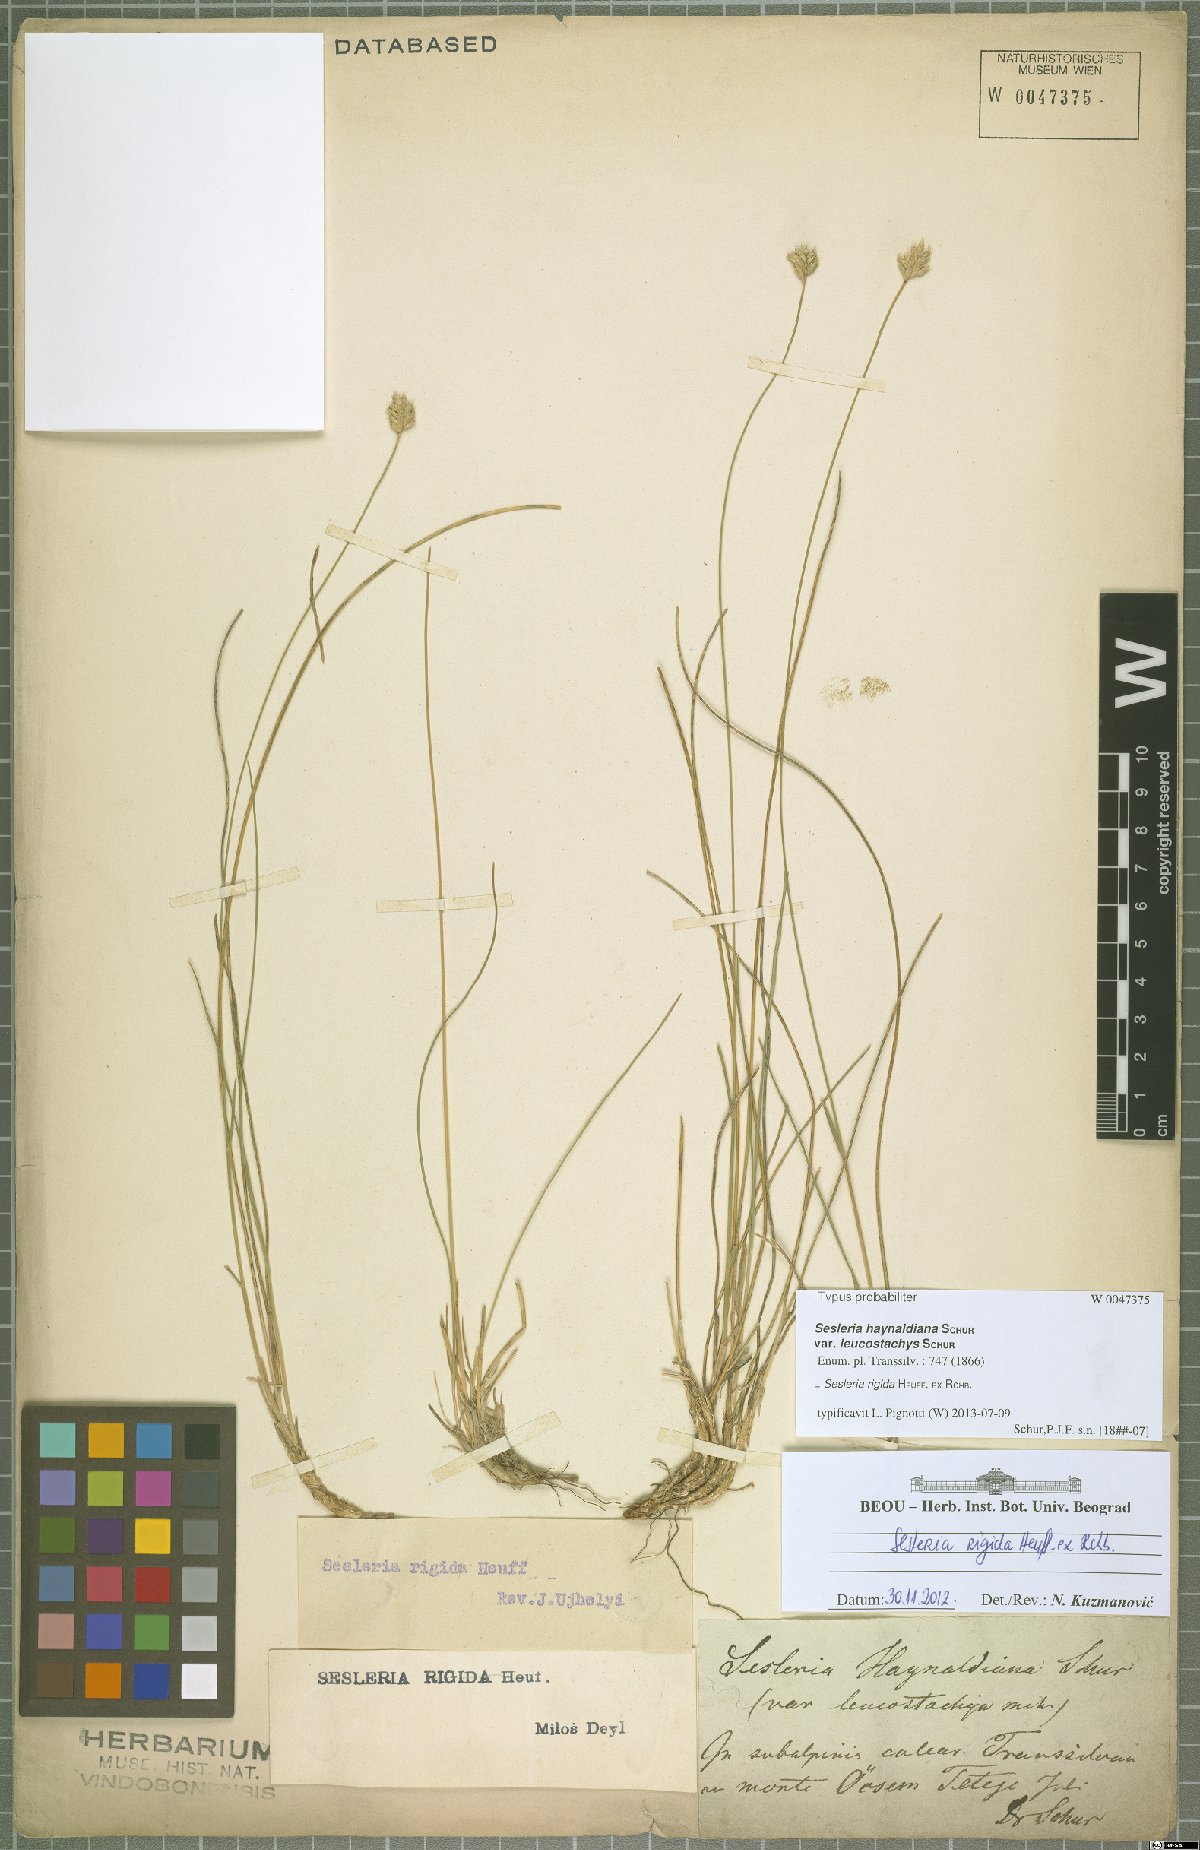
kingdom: Plantae
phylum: Tracheophyta
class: Liliopsida
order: Poales
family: Poaceae
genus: Sesleria
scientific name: Sesleria rigida
